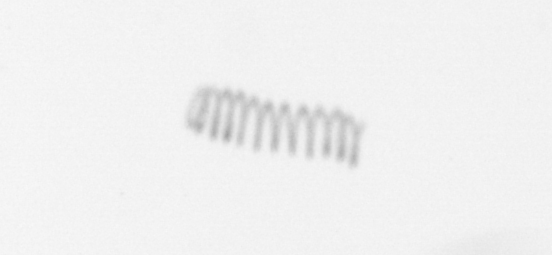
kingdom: Chromista
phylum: Ochrophyta
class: Bacillariophyceae
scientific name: Bacillariophyceae
